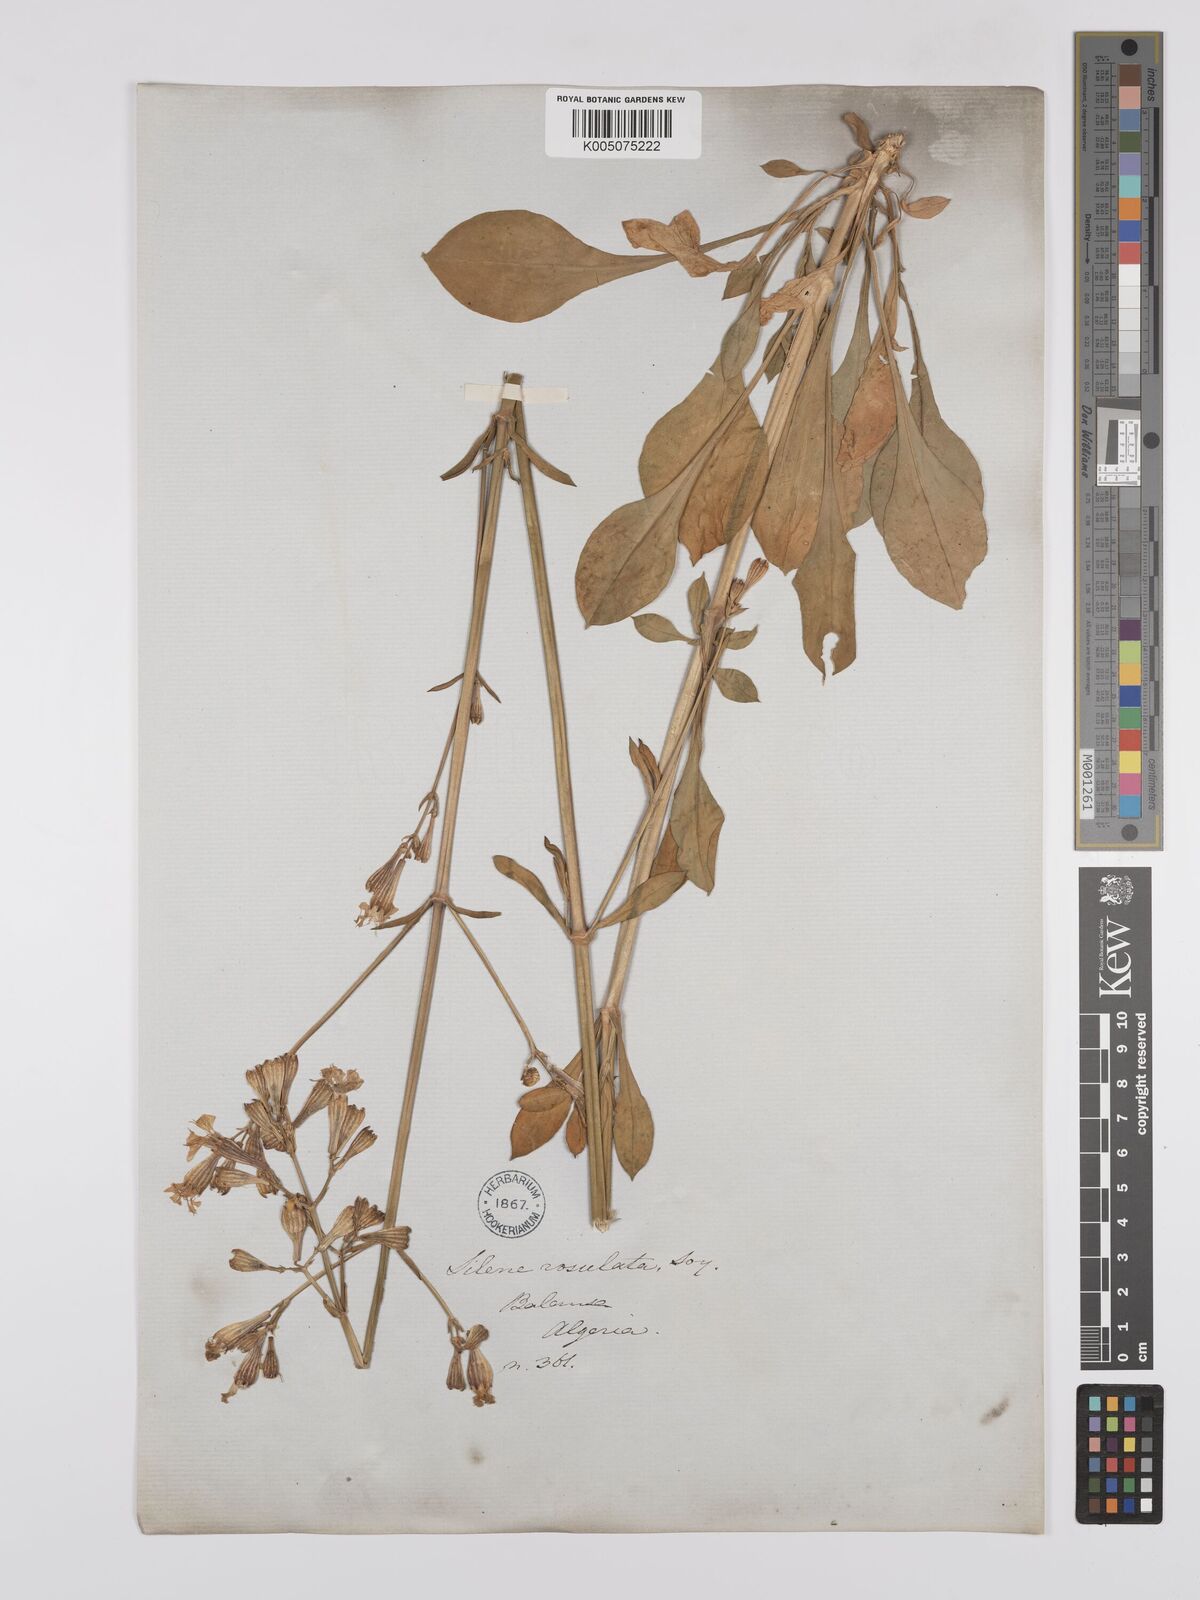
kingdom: Plantae
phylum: Tracheophyta
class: Magnoliopsida
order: Caryophyllales
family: Caryophyllaceae
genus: Silene
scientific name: Silene rosulata
